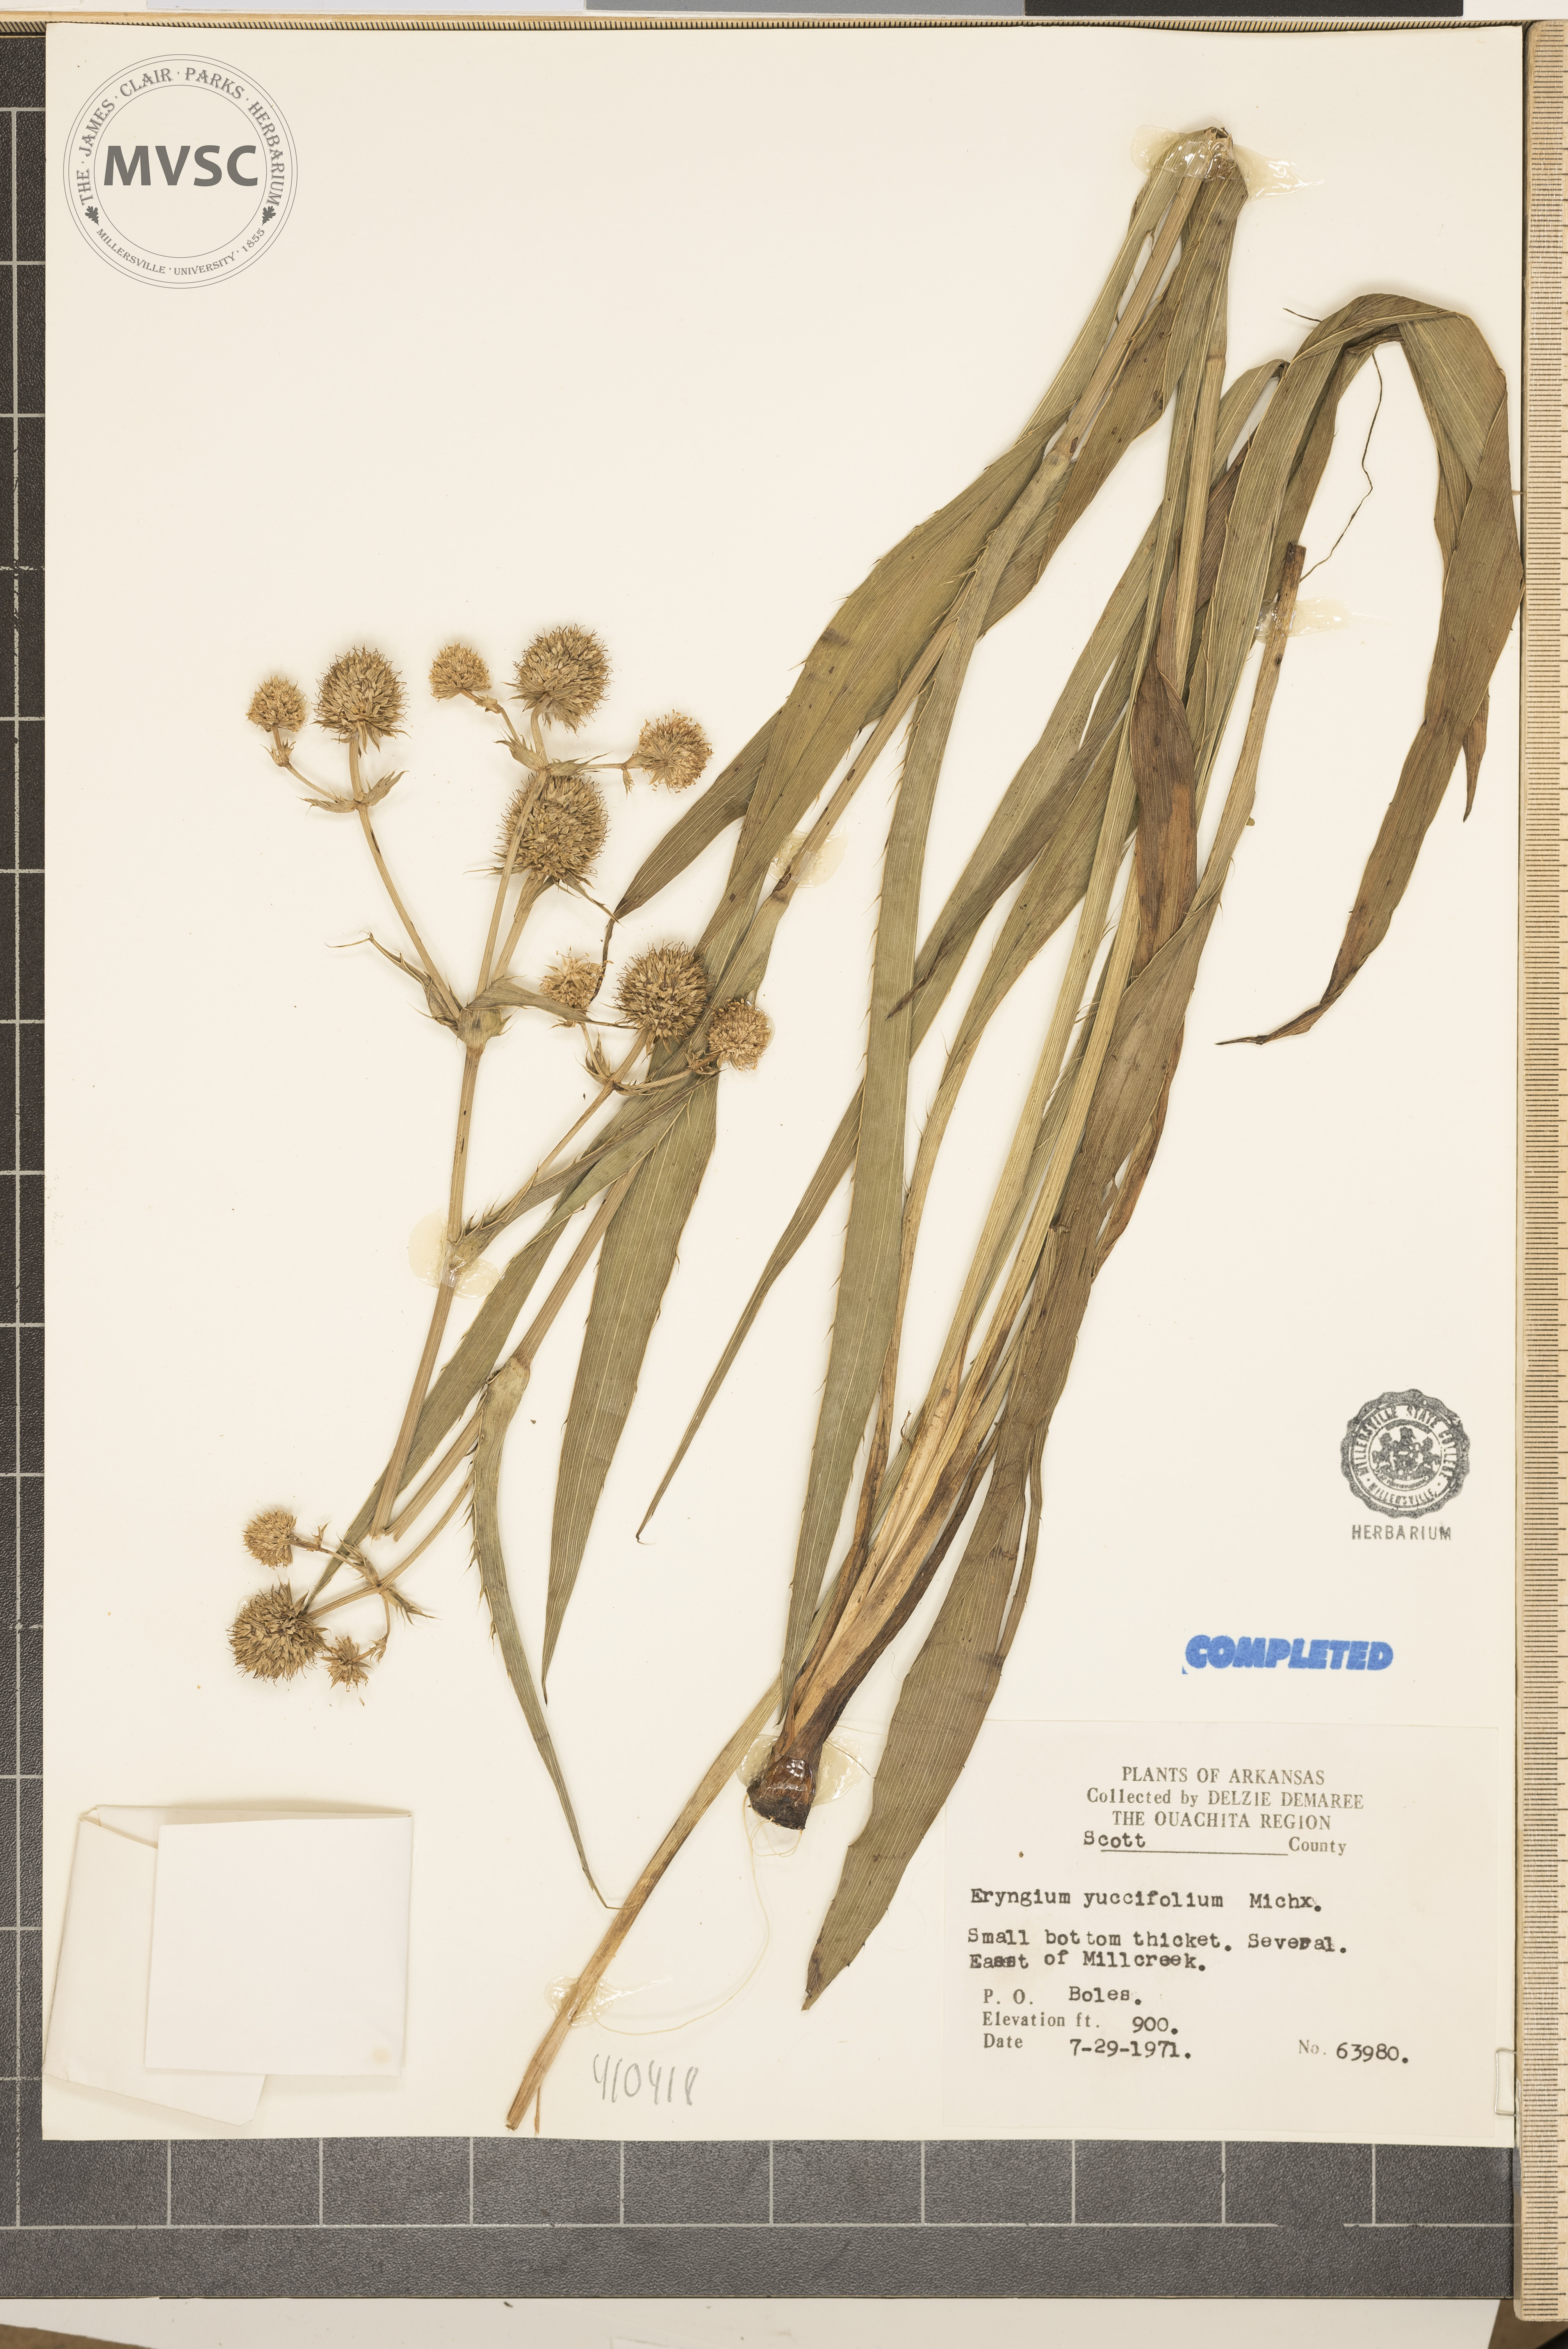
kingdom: Plantae
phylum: Tracheophyta
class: Magnoliopsida
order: Apiales
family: Apiaceae
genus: Eryngium
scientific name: Eryngium yuccifolium
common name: Button eryngo
